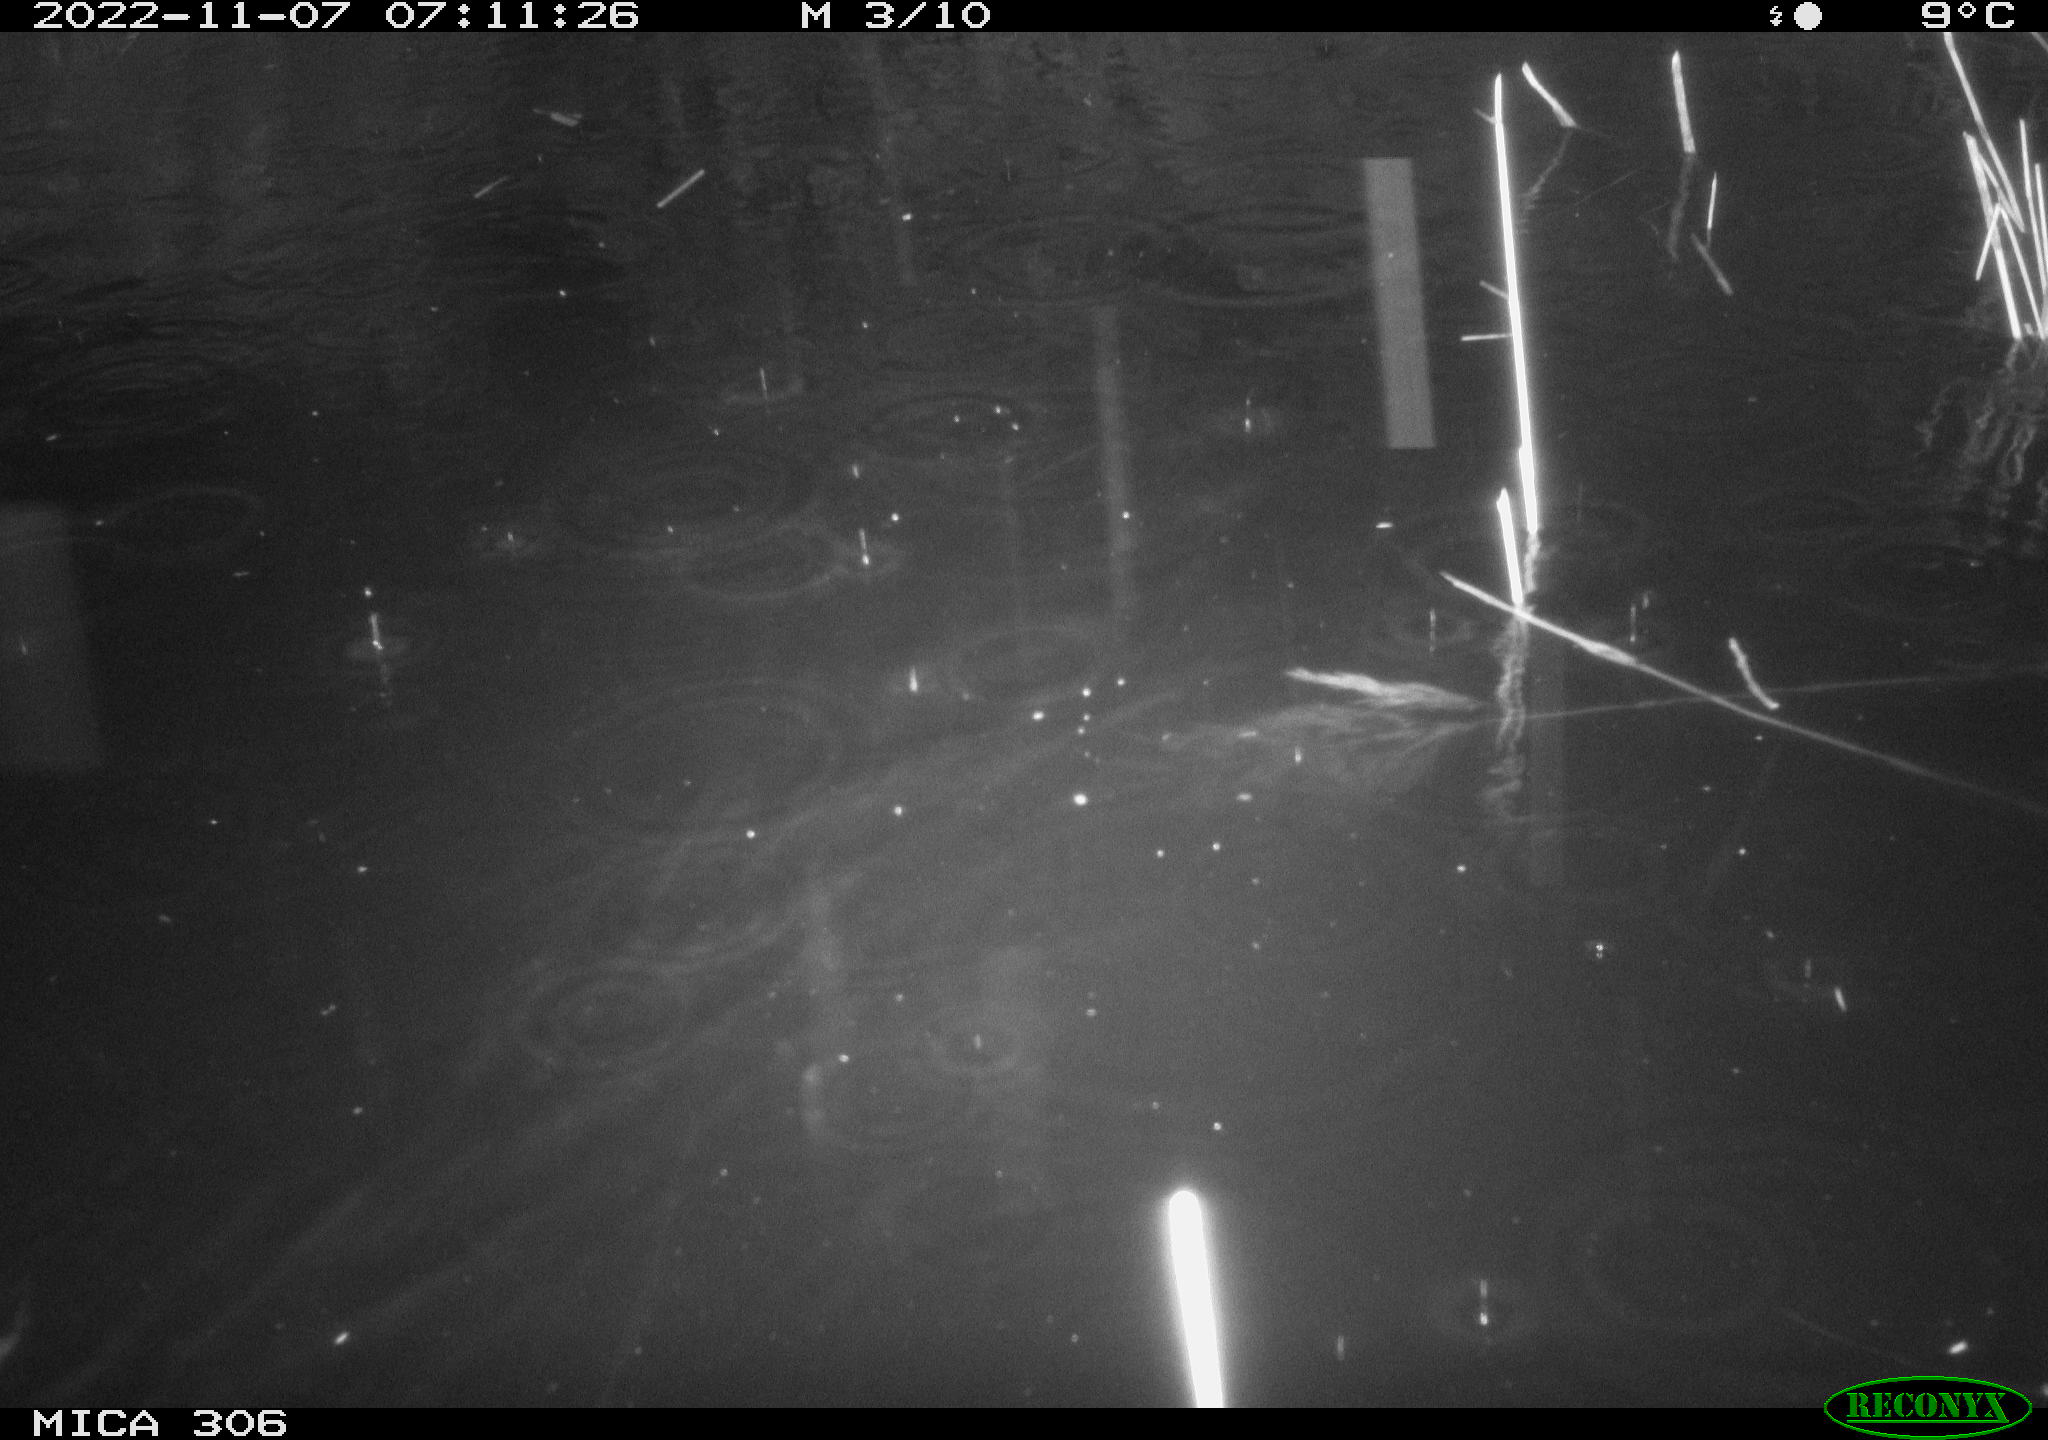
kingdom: Animalia
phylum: Chordata
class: Mammalia
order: Rodentia
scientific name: Rodentia
